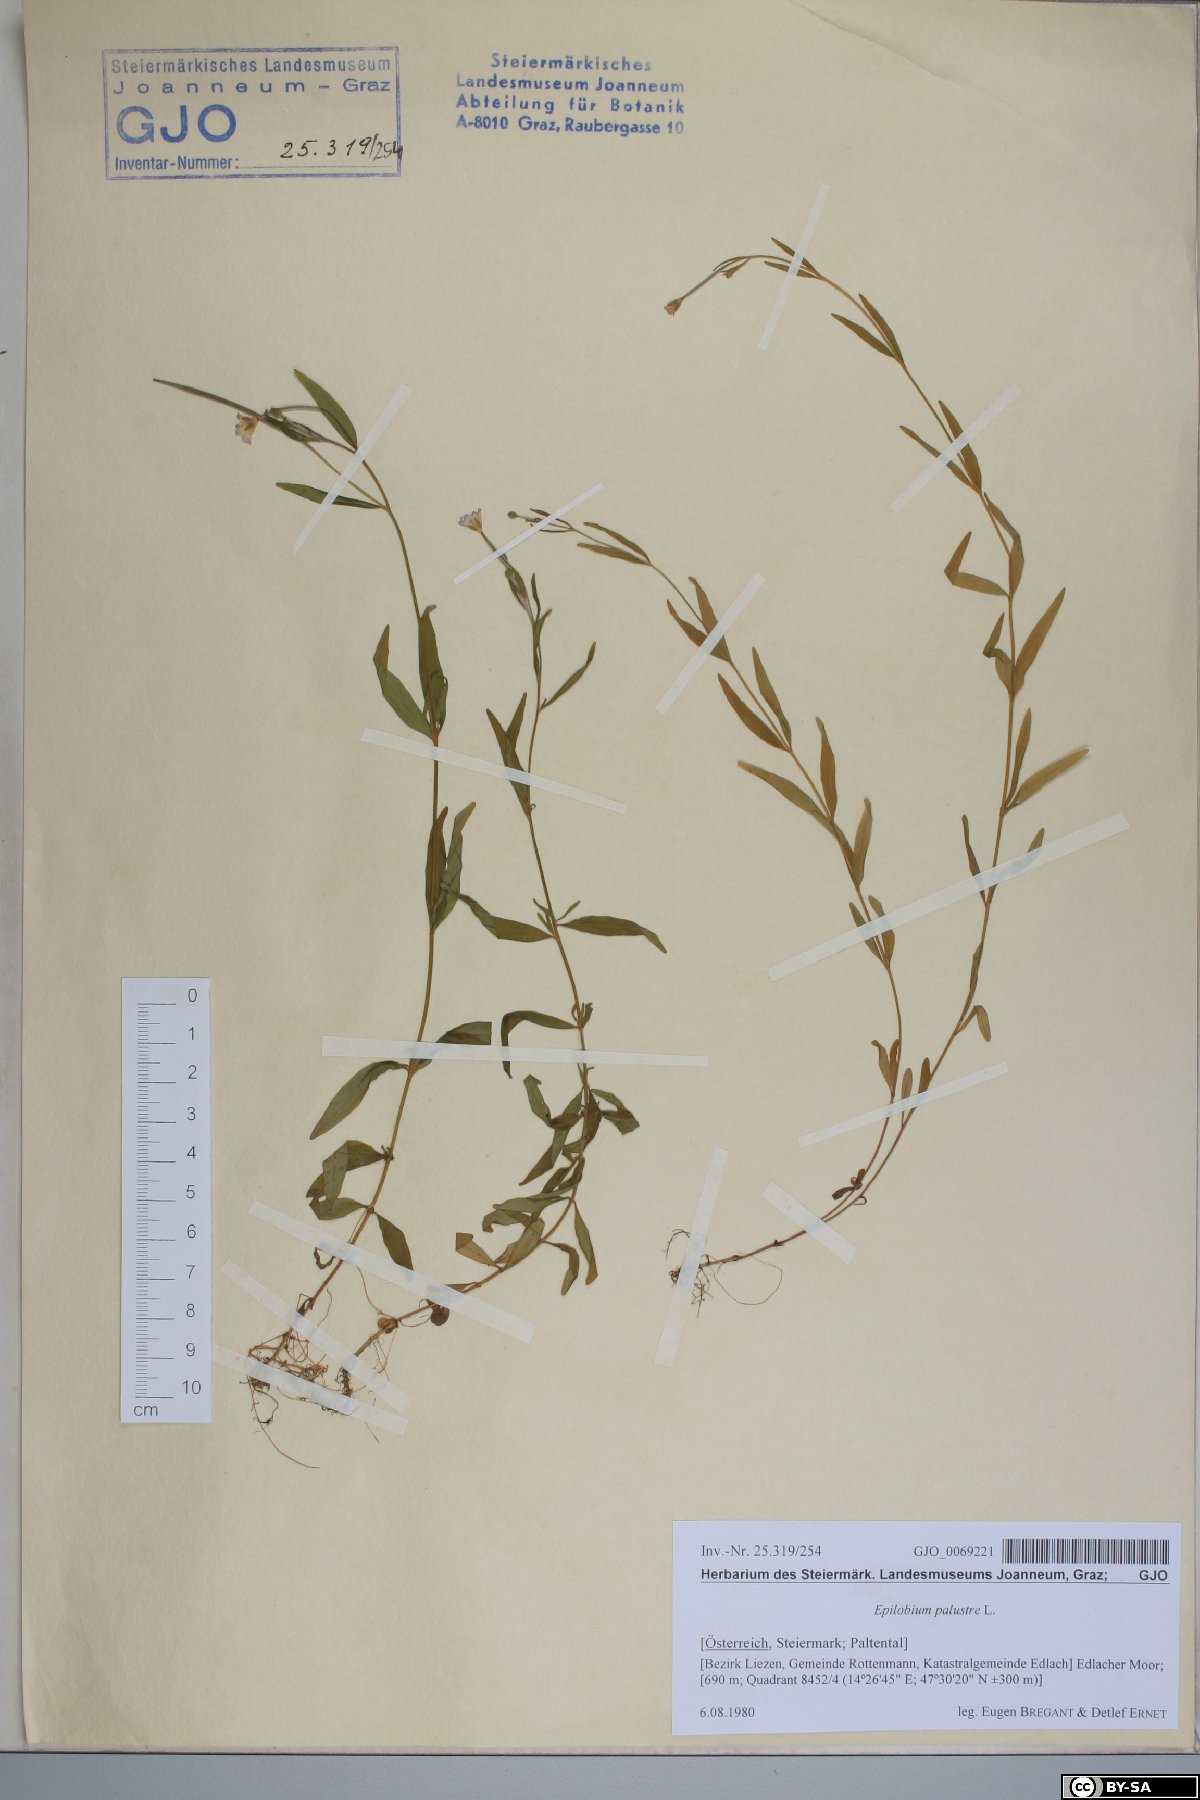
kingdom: Plantae
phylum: Tracheophyta
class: Magnoliopsida
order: Myrtales
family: Onagraceae
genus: Epilobium
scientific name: Epilobium palustre
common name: Marsh willowherb
